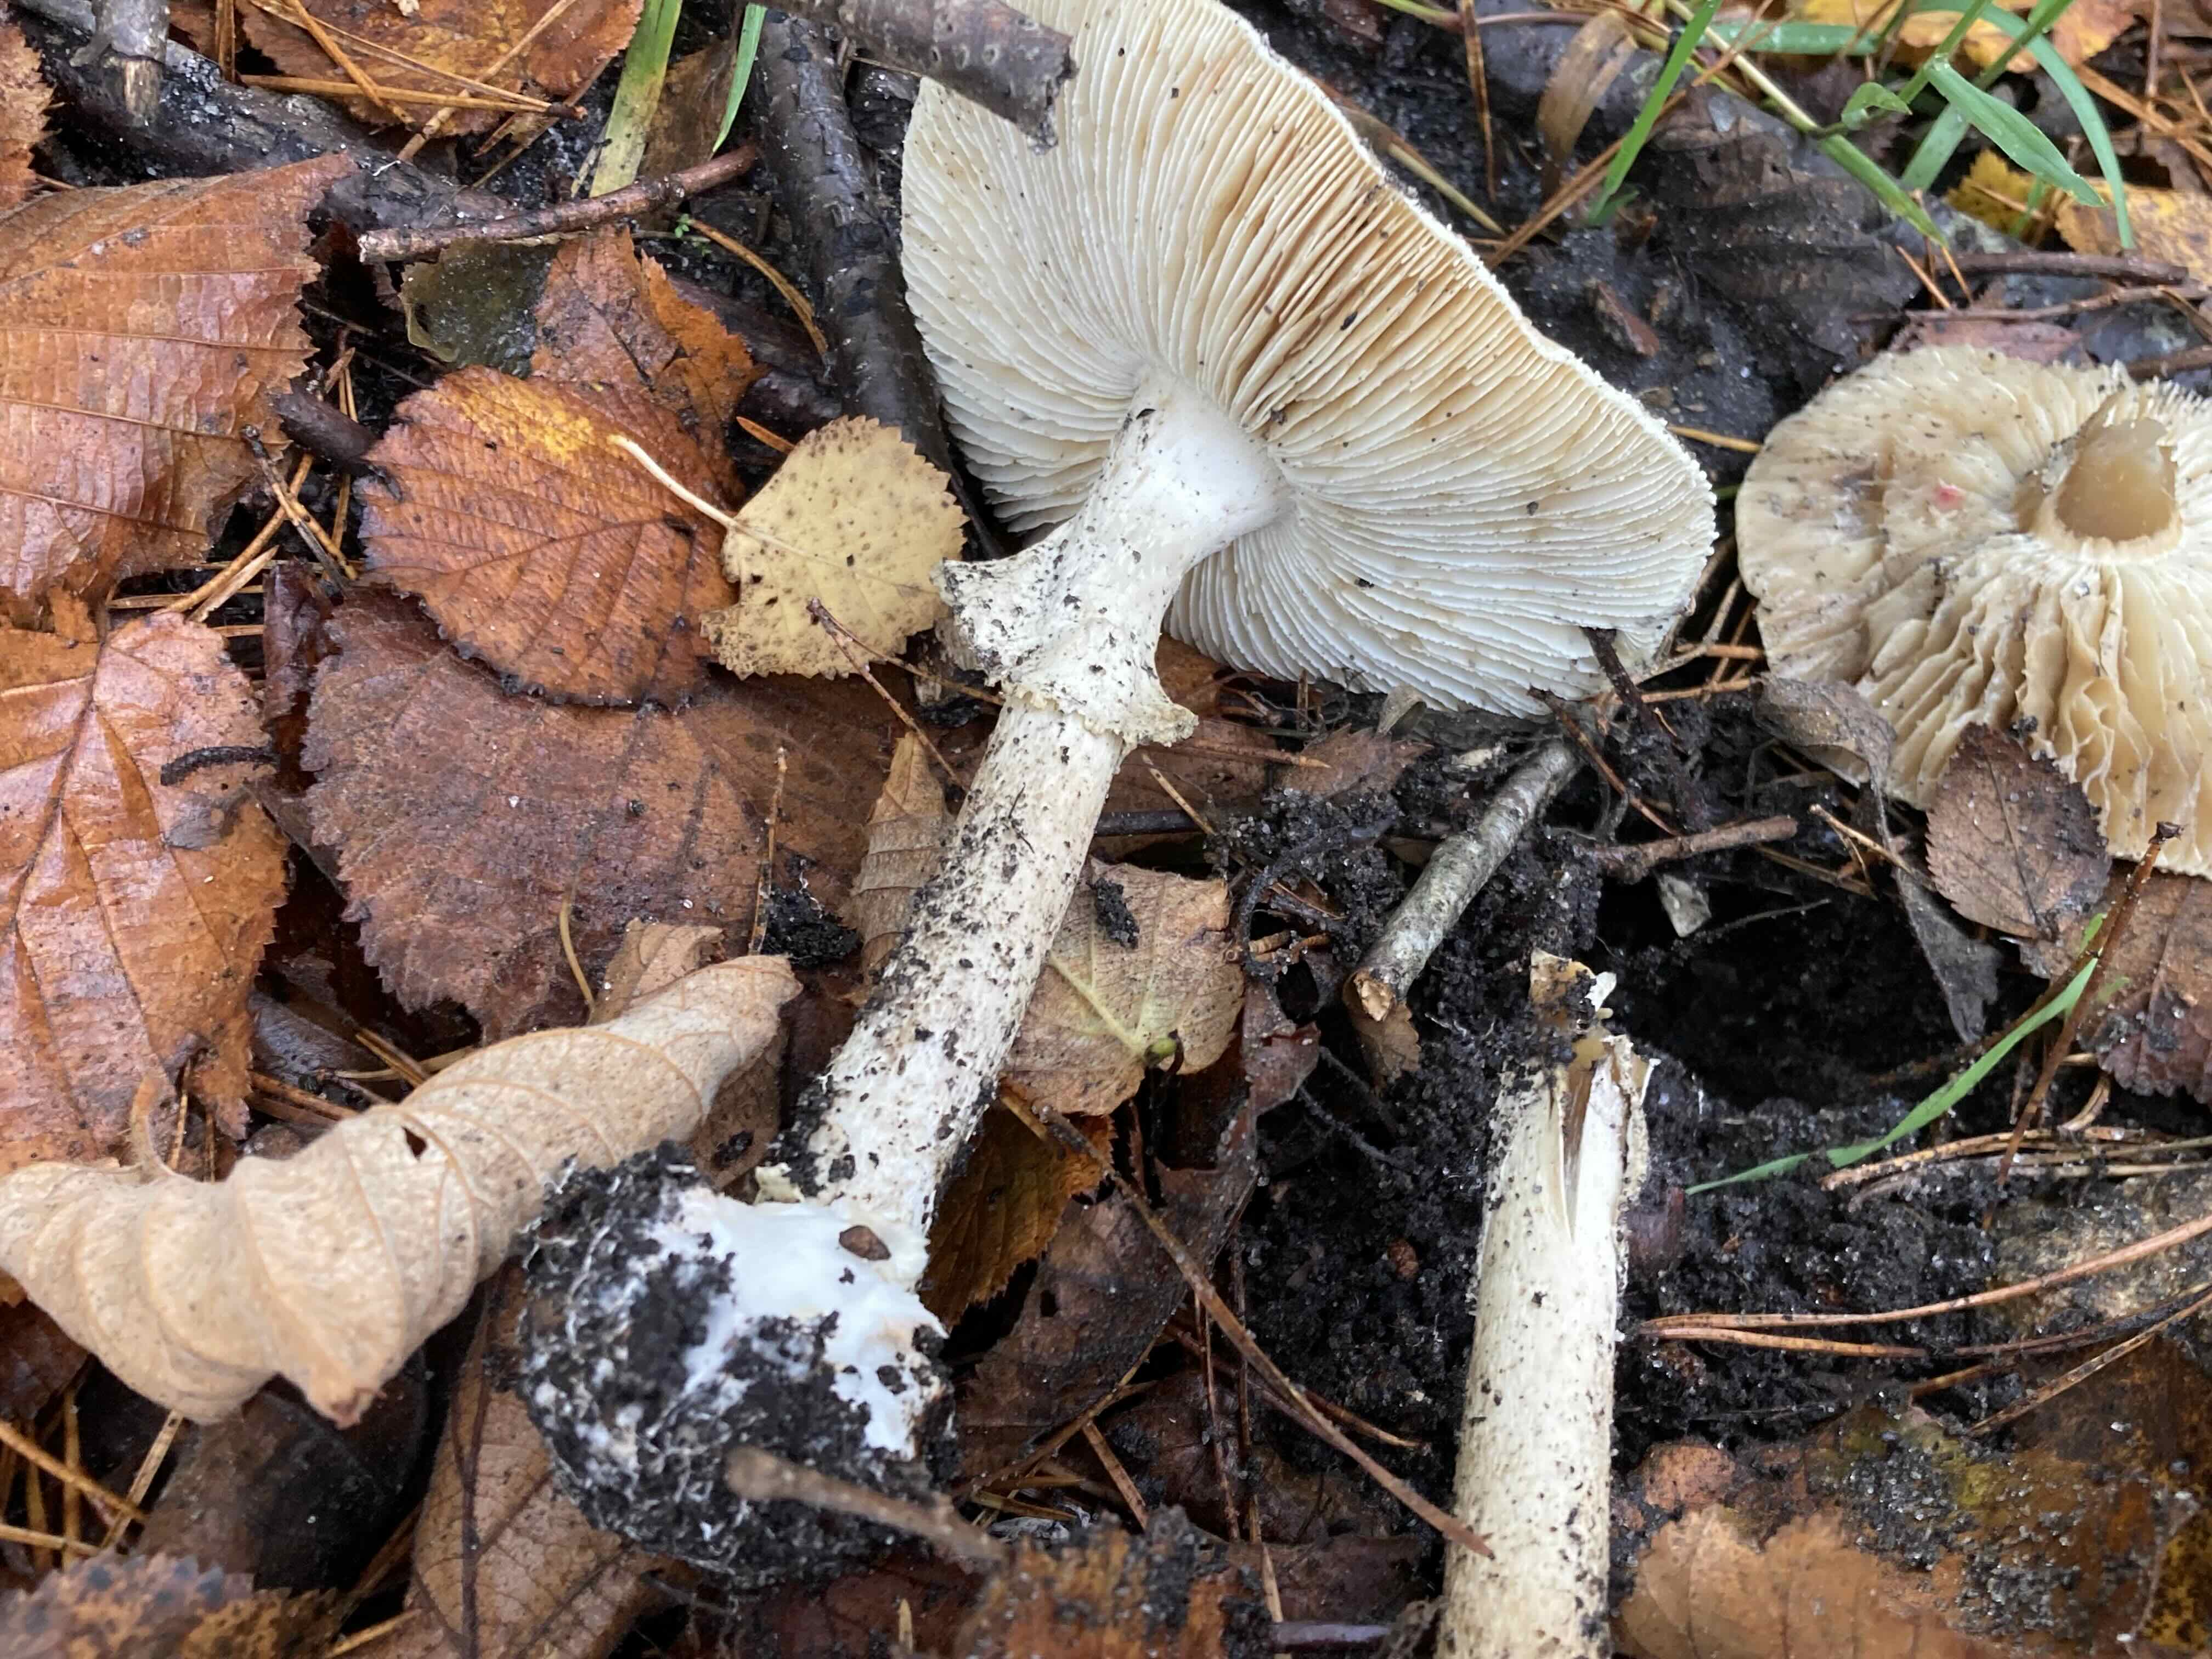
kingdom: Fungi
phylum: Basidiomycota
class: Agaricomycetes
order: Agaricales
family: Amanitaceae
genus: Amanita
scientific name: Amanita citrina
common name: kugleknoldet fluesvamp
